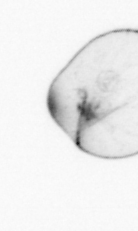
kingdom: Chromista
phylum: Myzozoa
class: Dinophyceae
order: Noctilucales
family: Noctilucaceae
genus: Noctiluca
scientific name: Noctiluca scintillans
